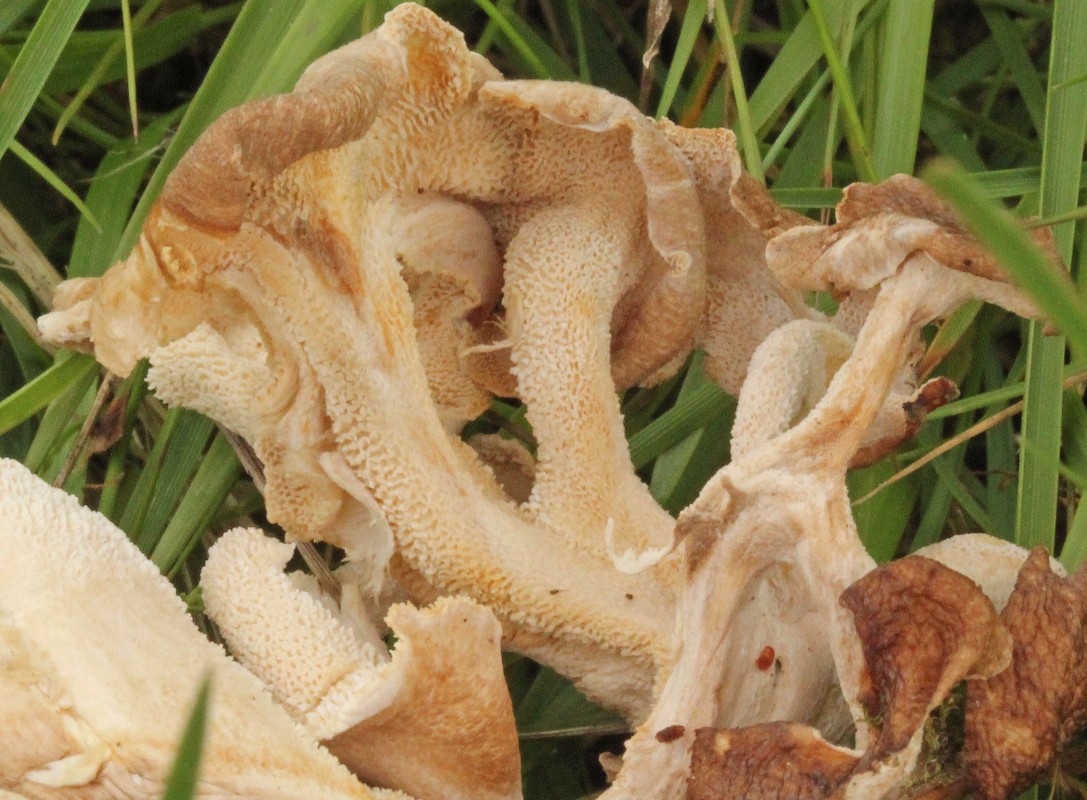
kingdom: Fungi
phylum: Basidiomycota
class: Agaricomycetes
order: Polyporales
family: Polyporaceae
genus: Polyporus
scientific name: Polyporus umbellatus
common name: skærmformet stilkporesvamp
